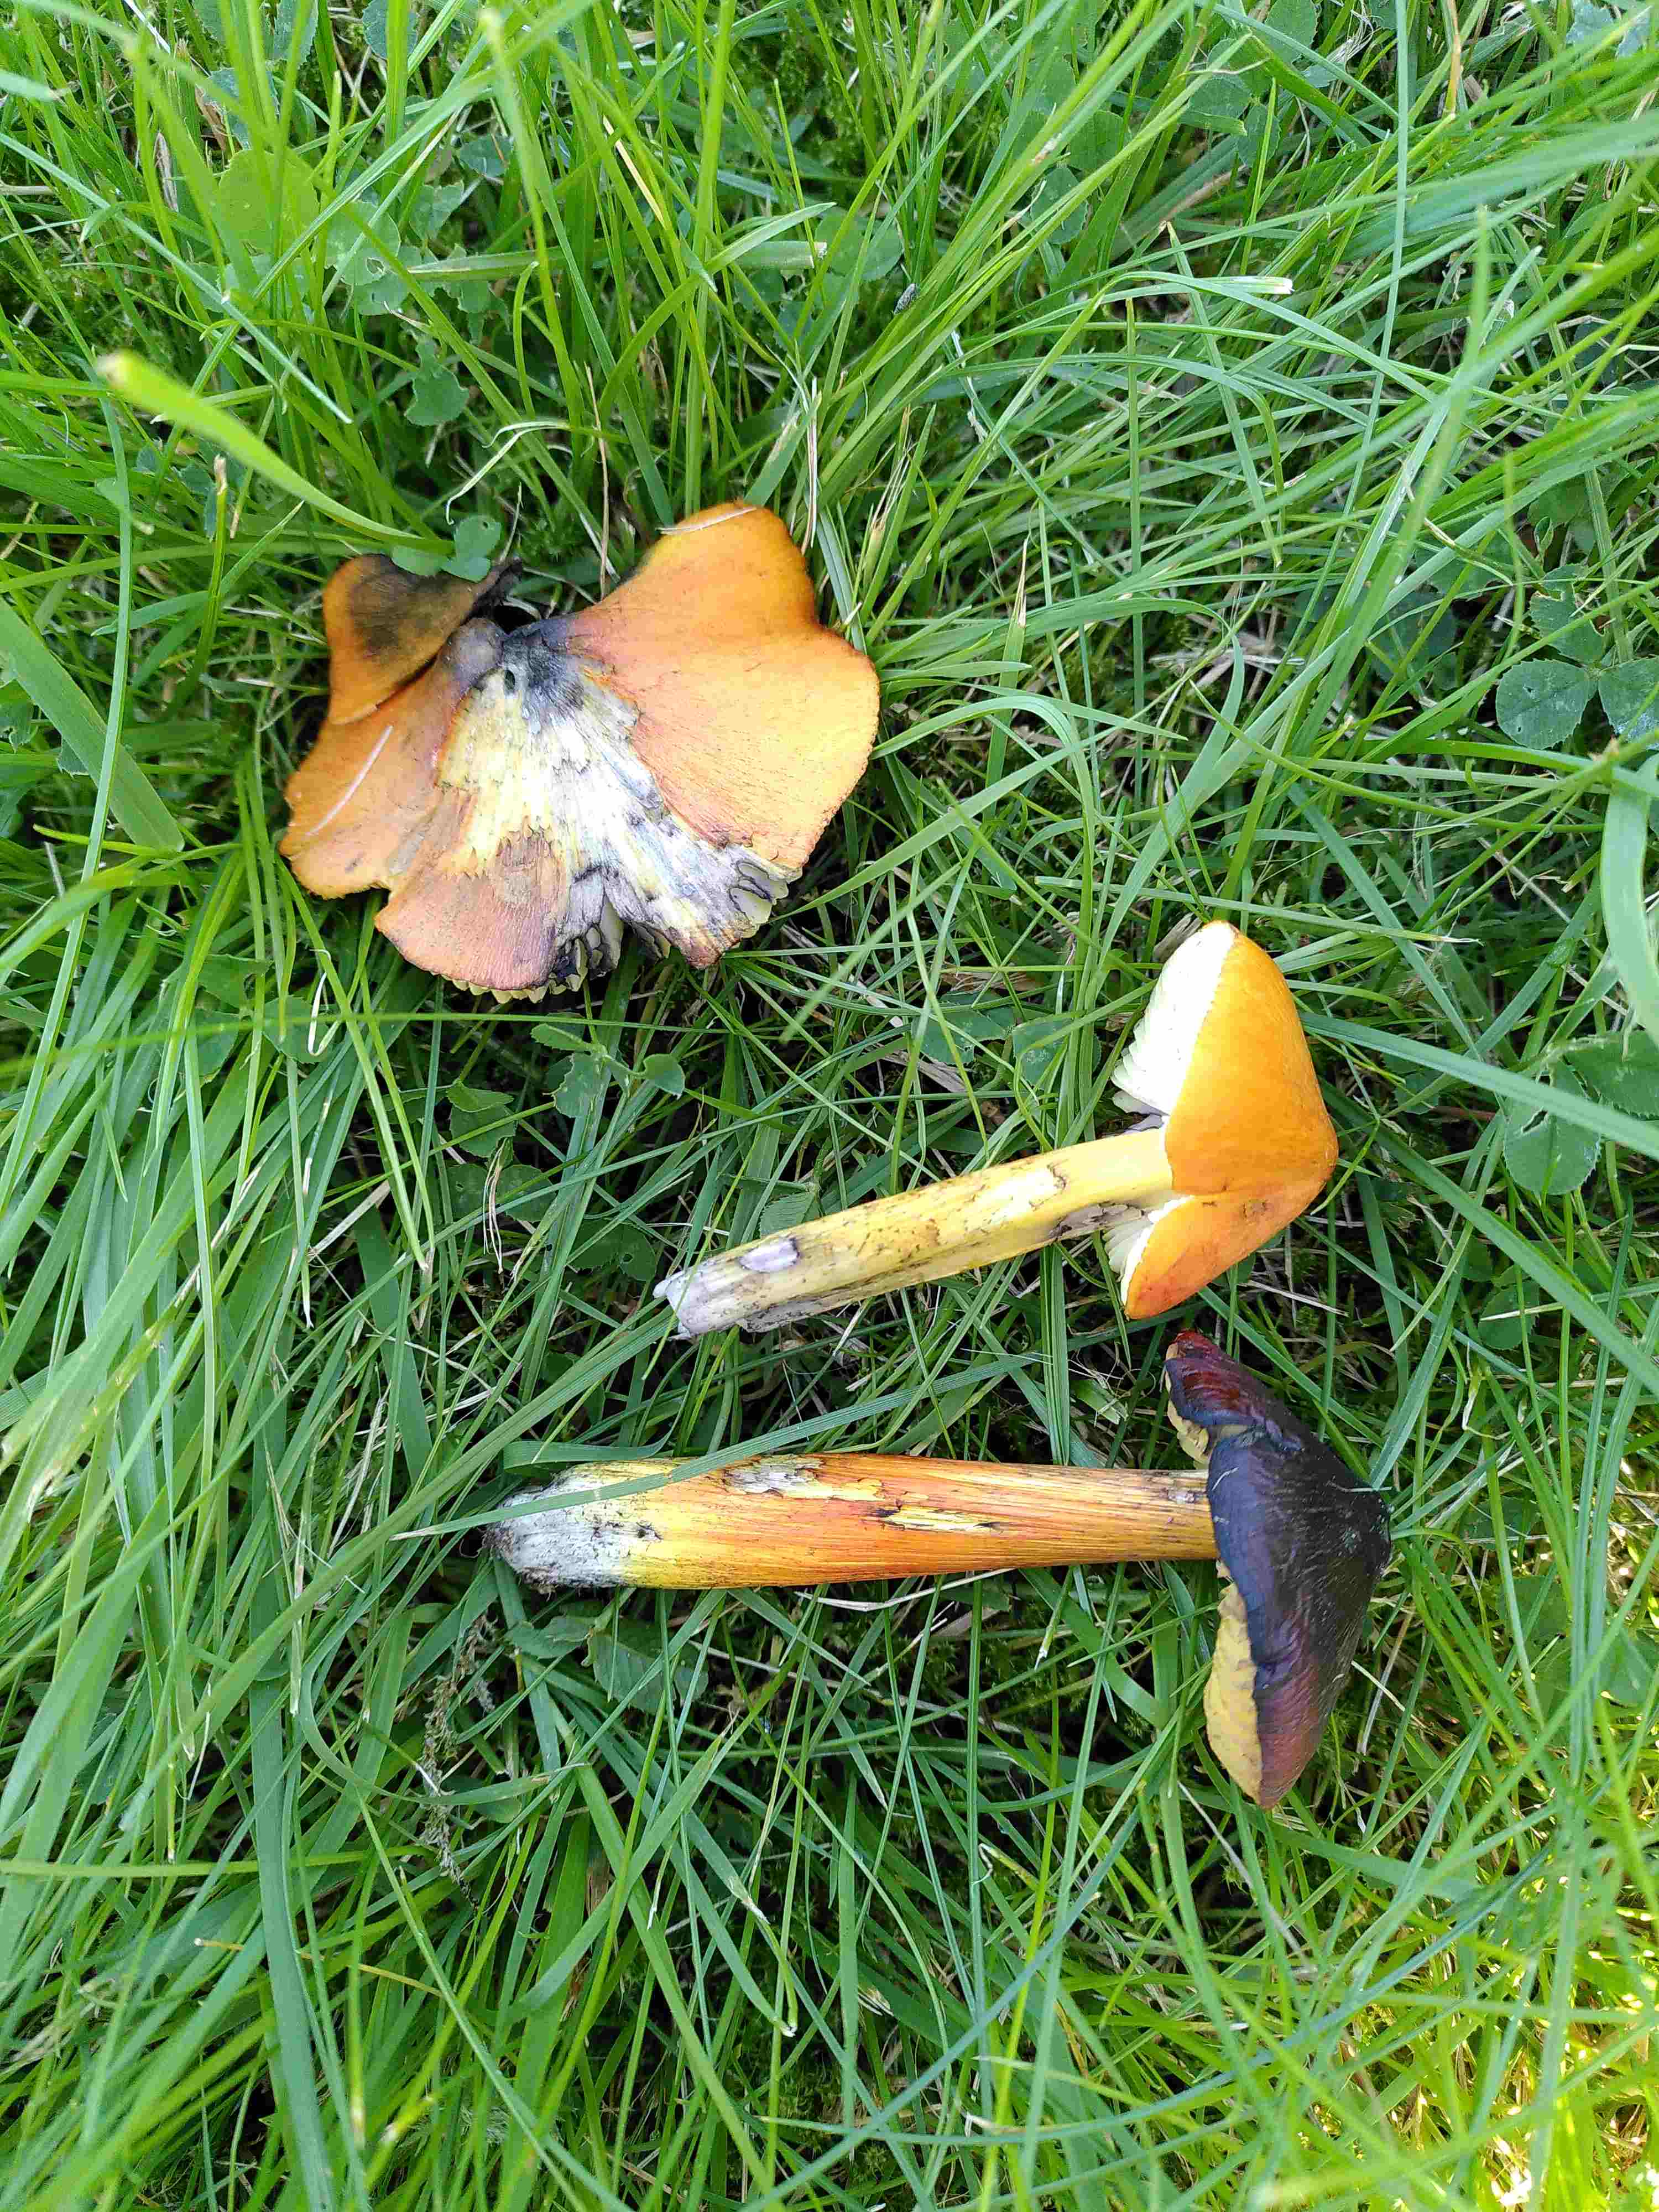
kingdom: Fungi
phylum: Basidiomycota
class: Agaricomycetes
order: Agaricales
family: Hygrophoraceae
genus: Hygrocybe
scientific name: Hygrocybe conica
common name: kegle-vokshat
